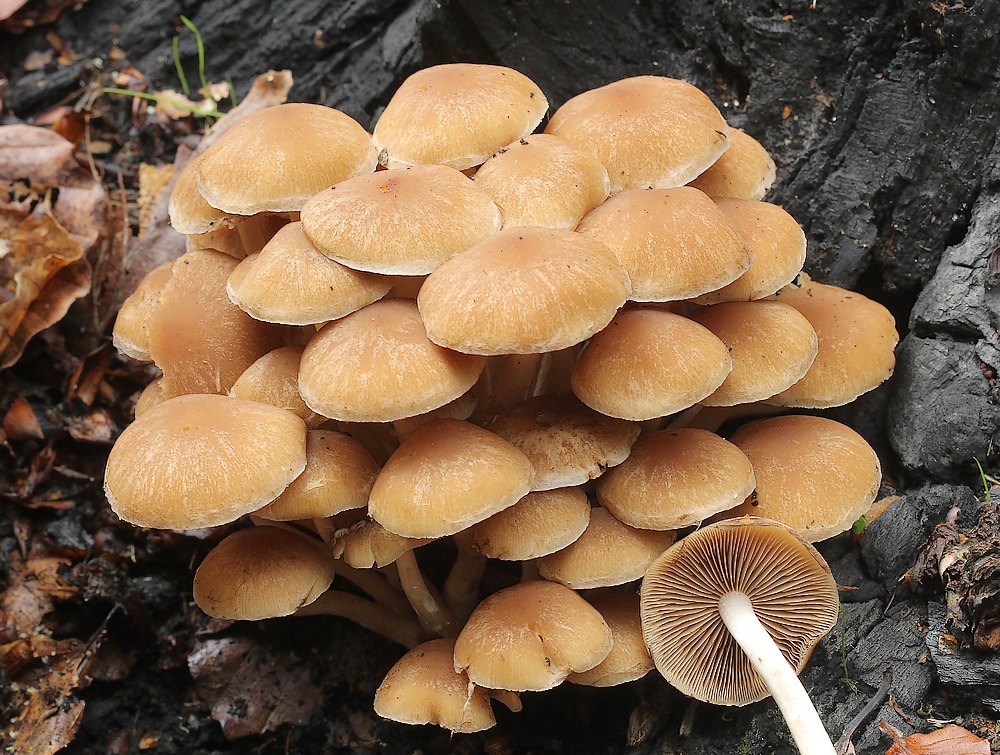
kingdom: Fungi
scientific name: Fungi
